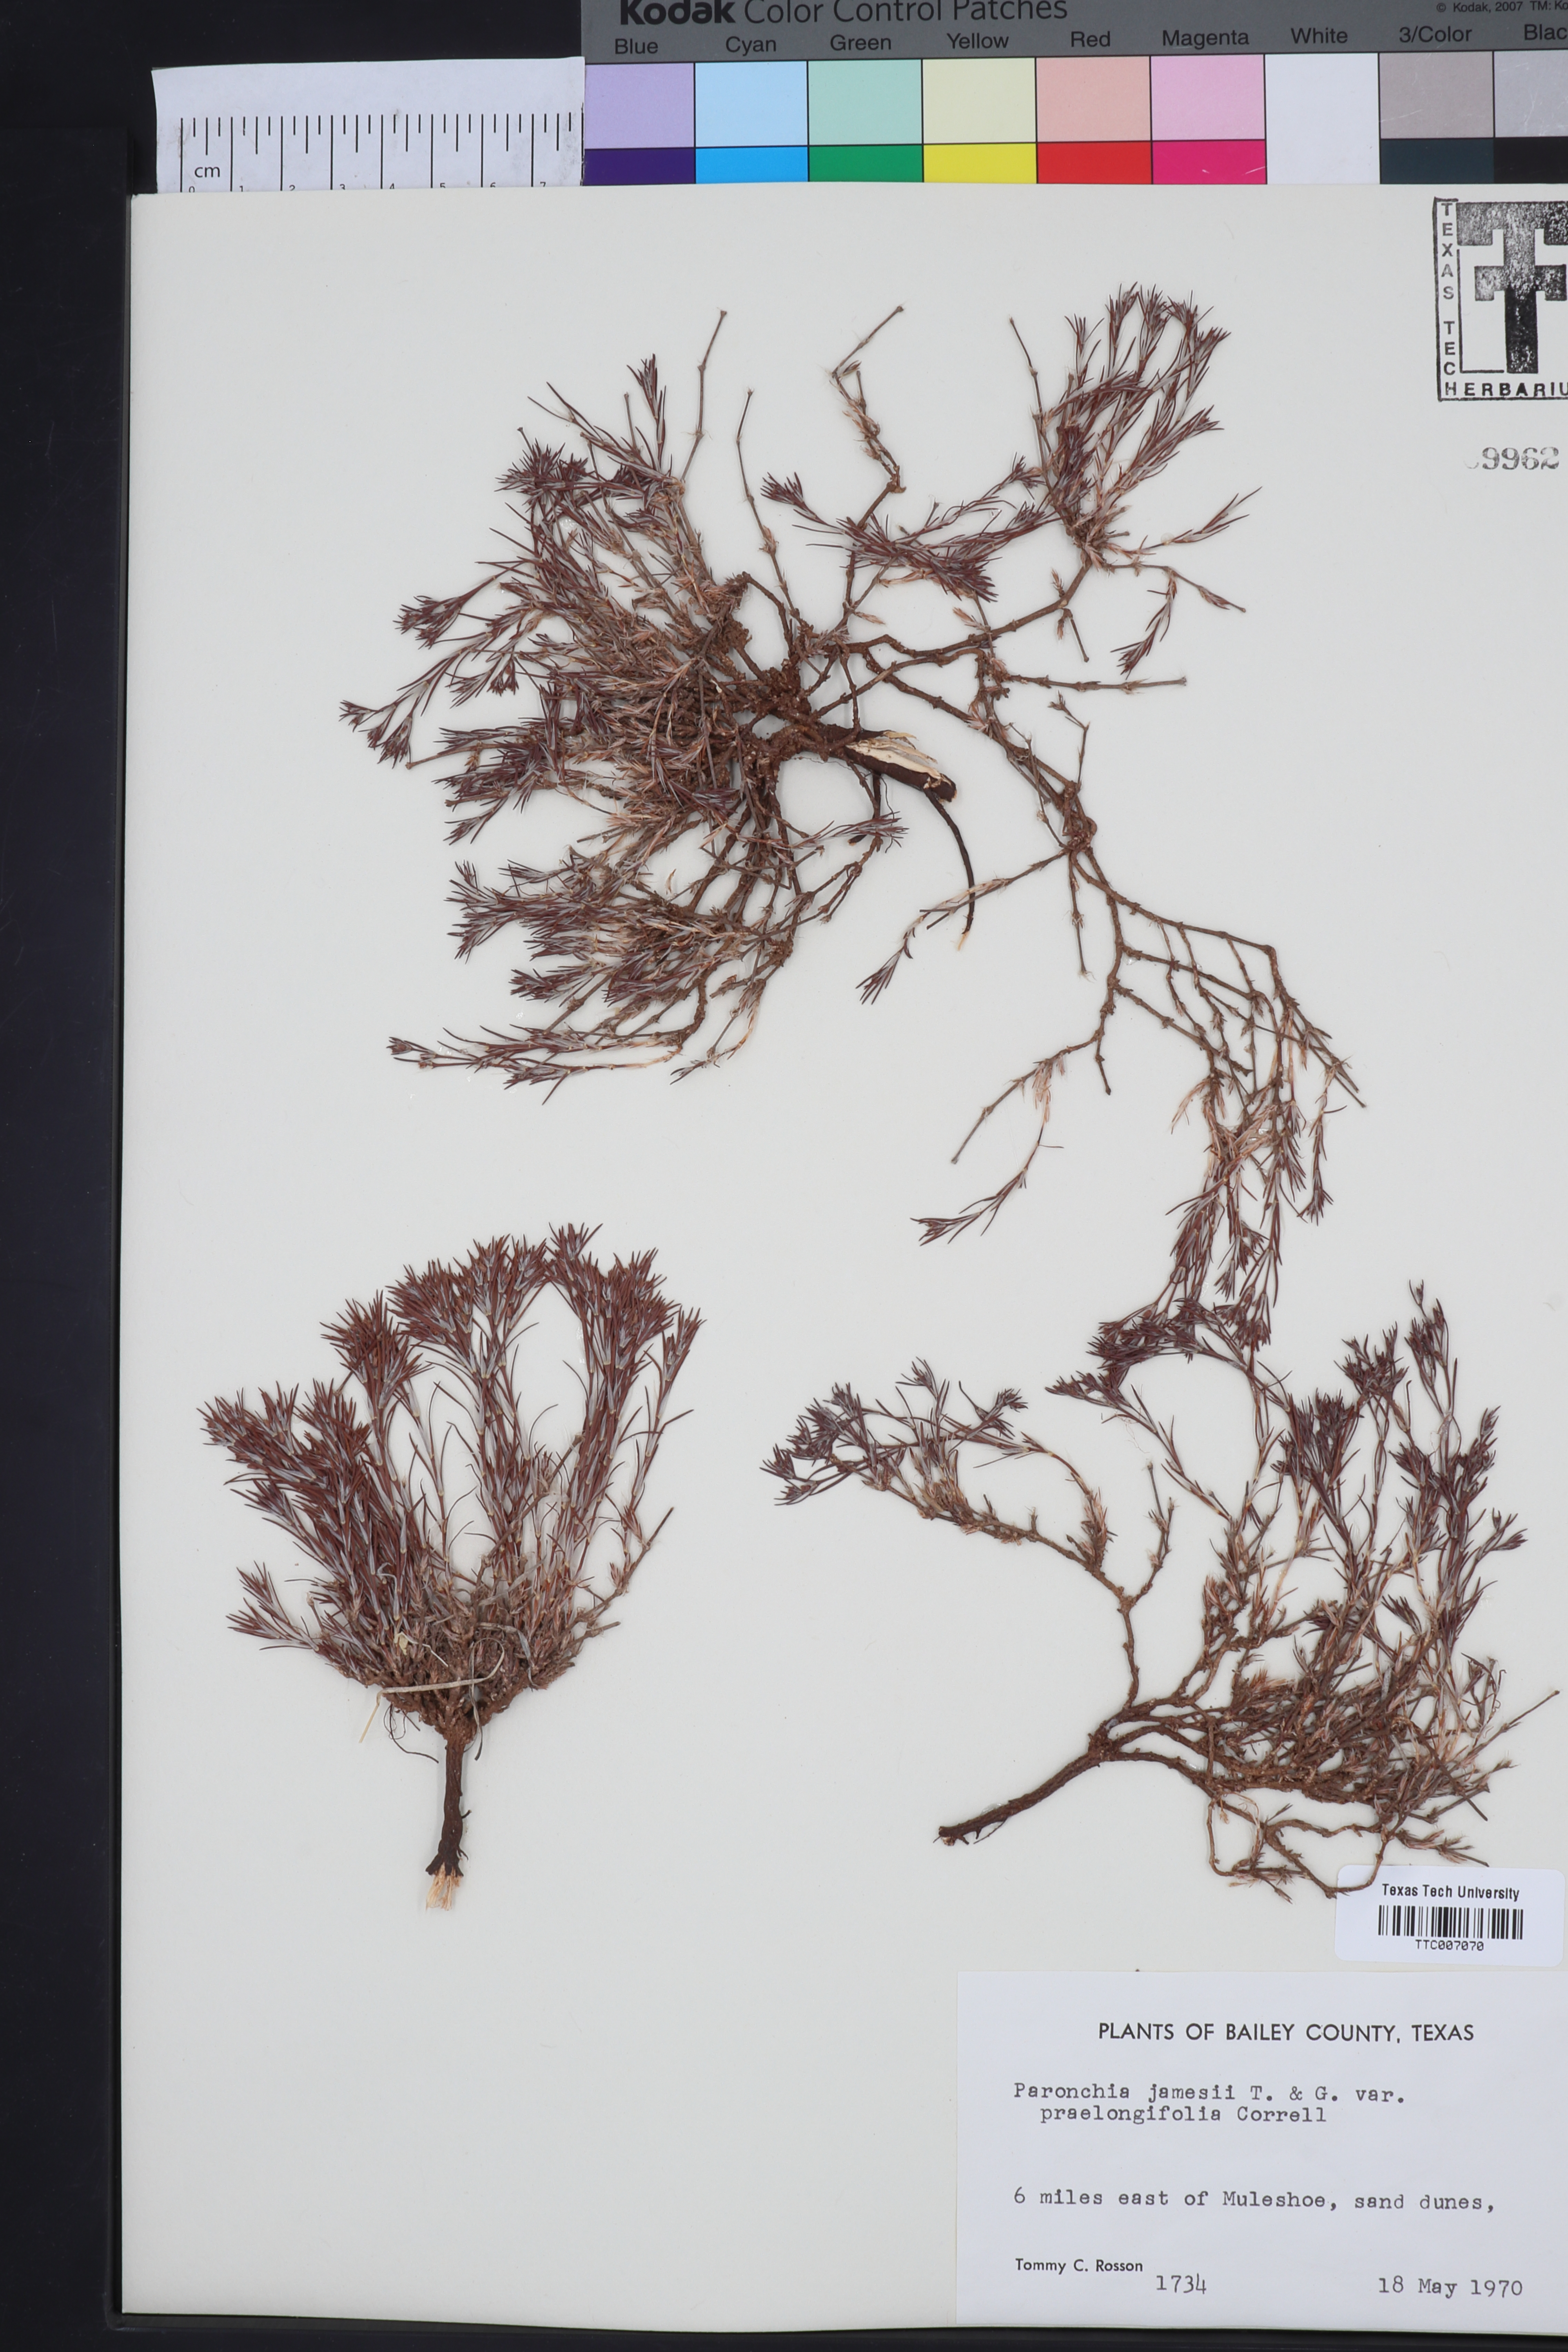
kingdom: Plantae
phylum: Tracheophyta
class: Magnoliopsida
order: Caryophyllales
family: Caryophyllaceae
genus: Paronychia
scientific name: Paronychia jamesii
